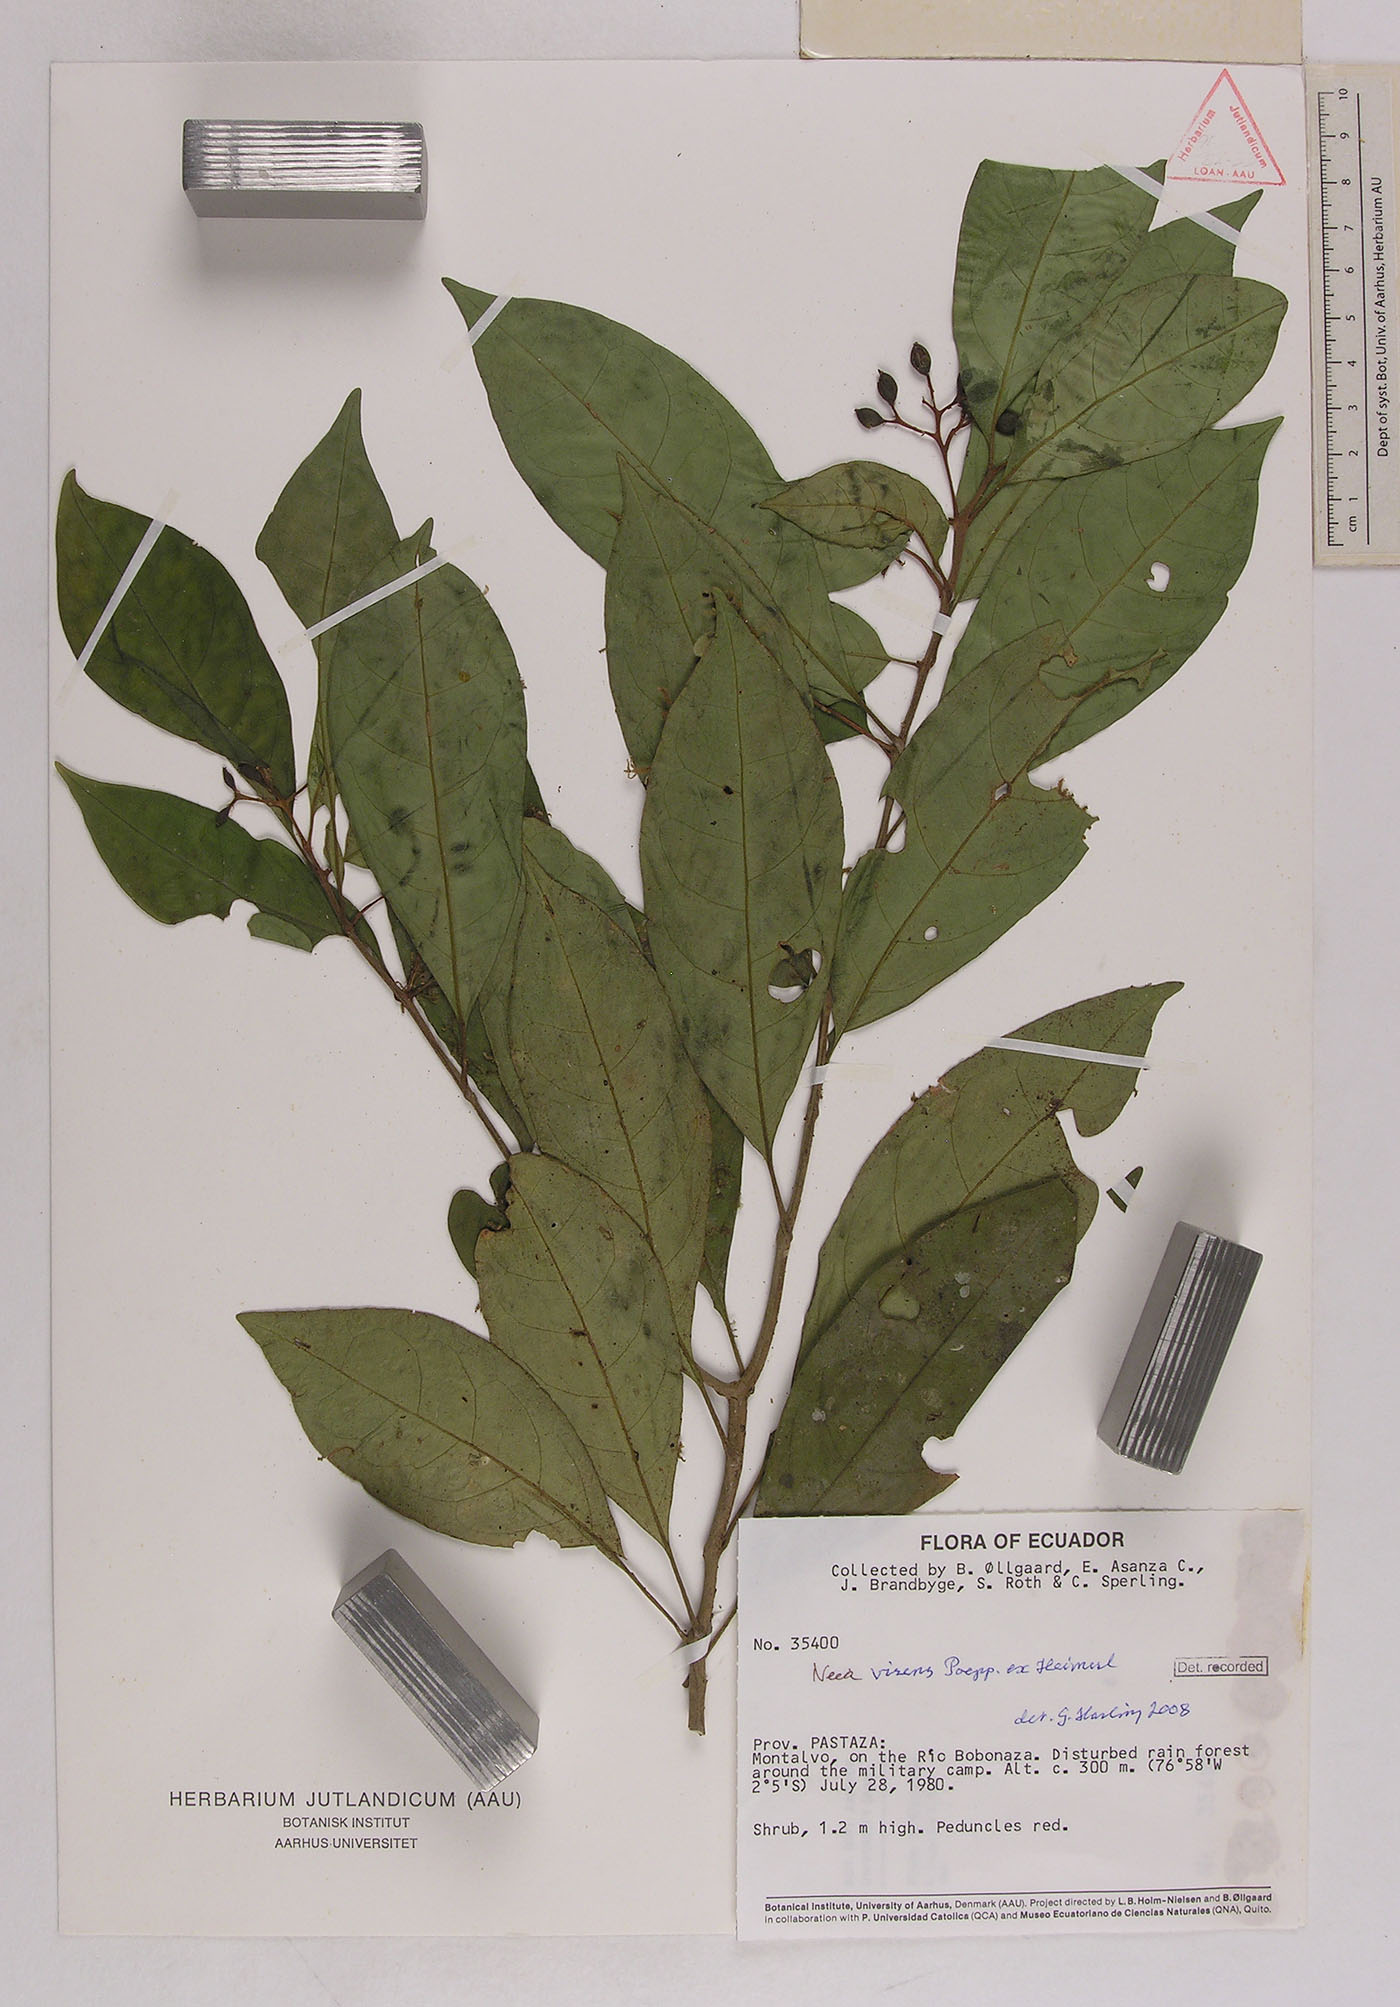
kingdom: Plantae
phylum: Tracheophyta
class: Magnoliopsida
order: Caryophyllales
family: Nyctaginaceae
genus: Neea
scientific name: Neea virens
